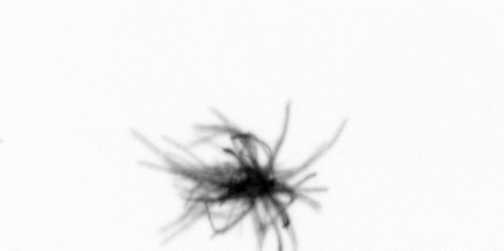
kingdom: Bacteria
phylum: Cyanobacteria
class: Cyanobacteriia
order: Cyanobacteriales
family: Microcoleaceae
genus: Trichodesmium
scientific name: Trichodesmium
